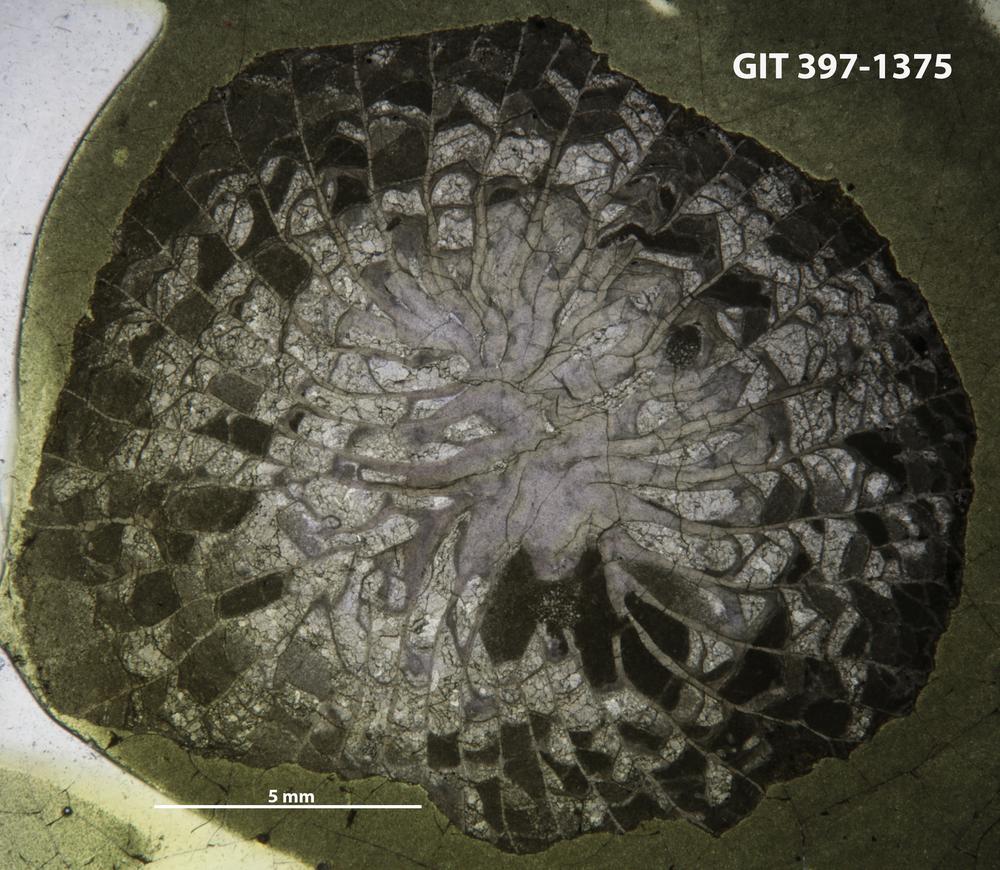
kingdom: Animalia
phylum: Cnidaria
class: Anthozoa
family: Lykophyllidae
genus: Phaulactis
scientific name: Phaulactis
